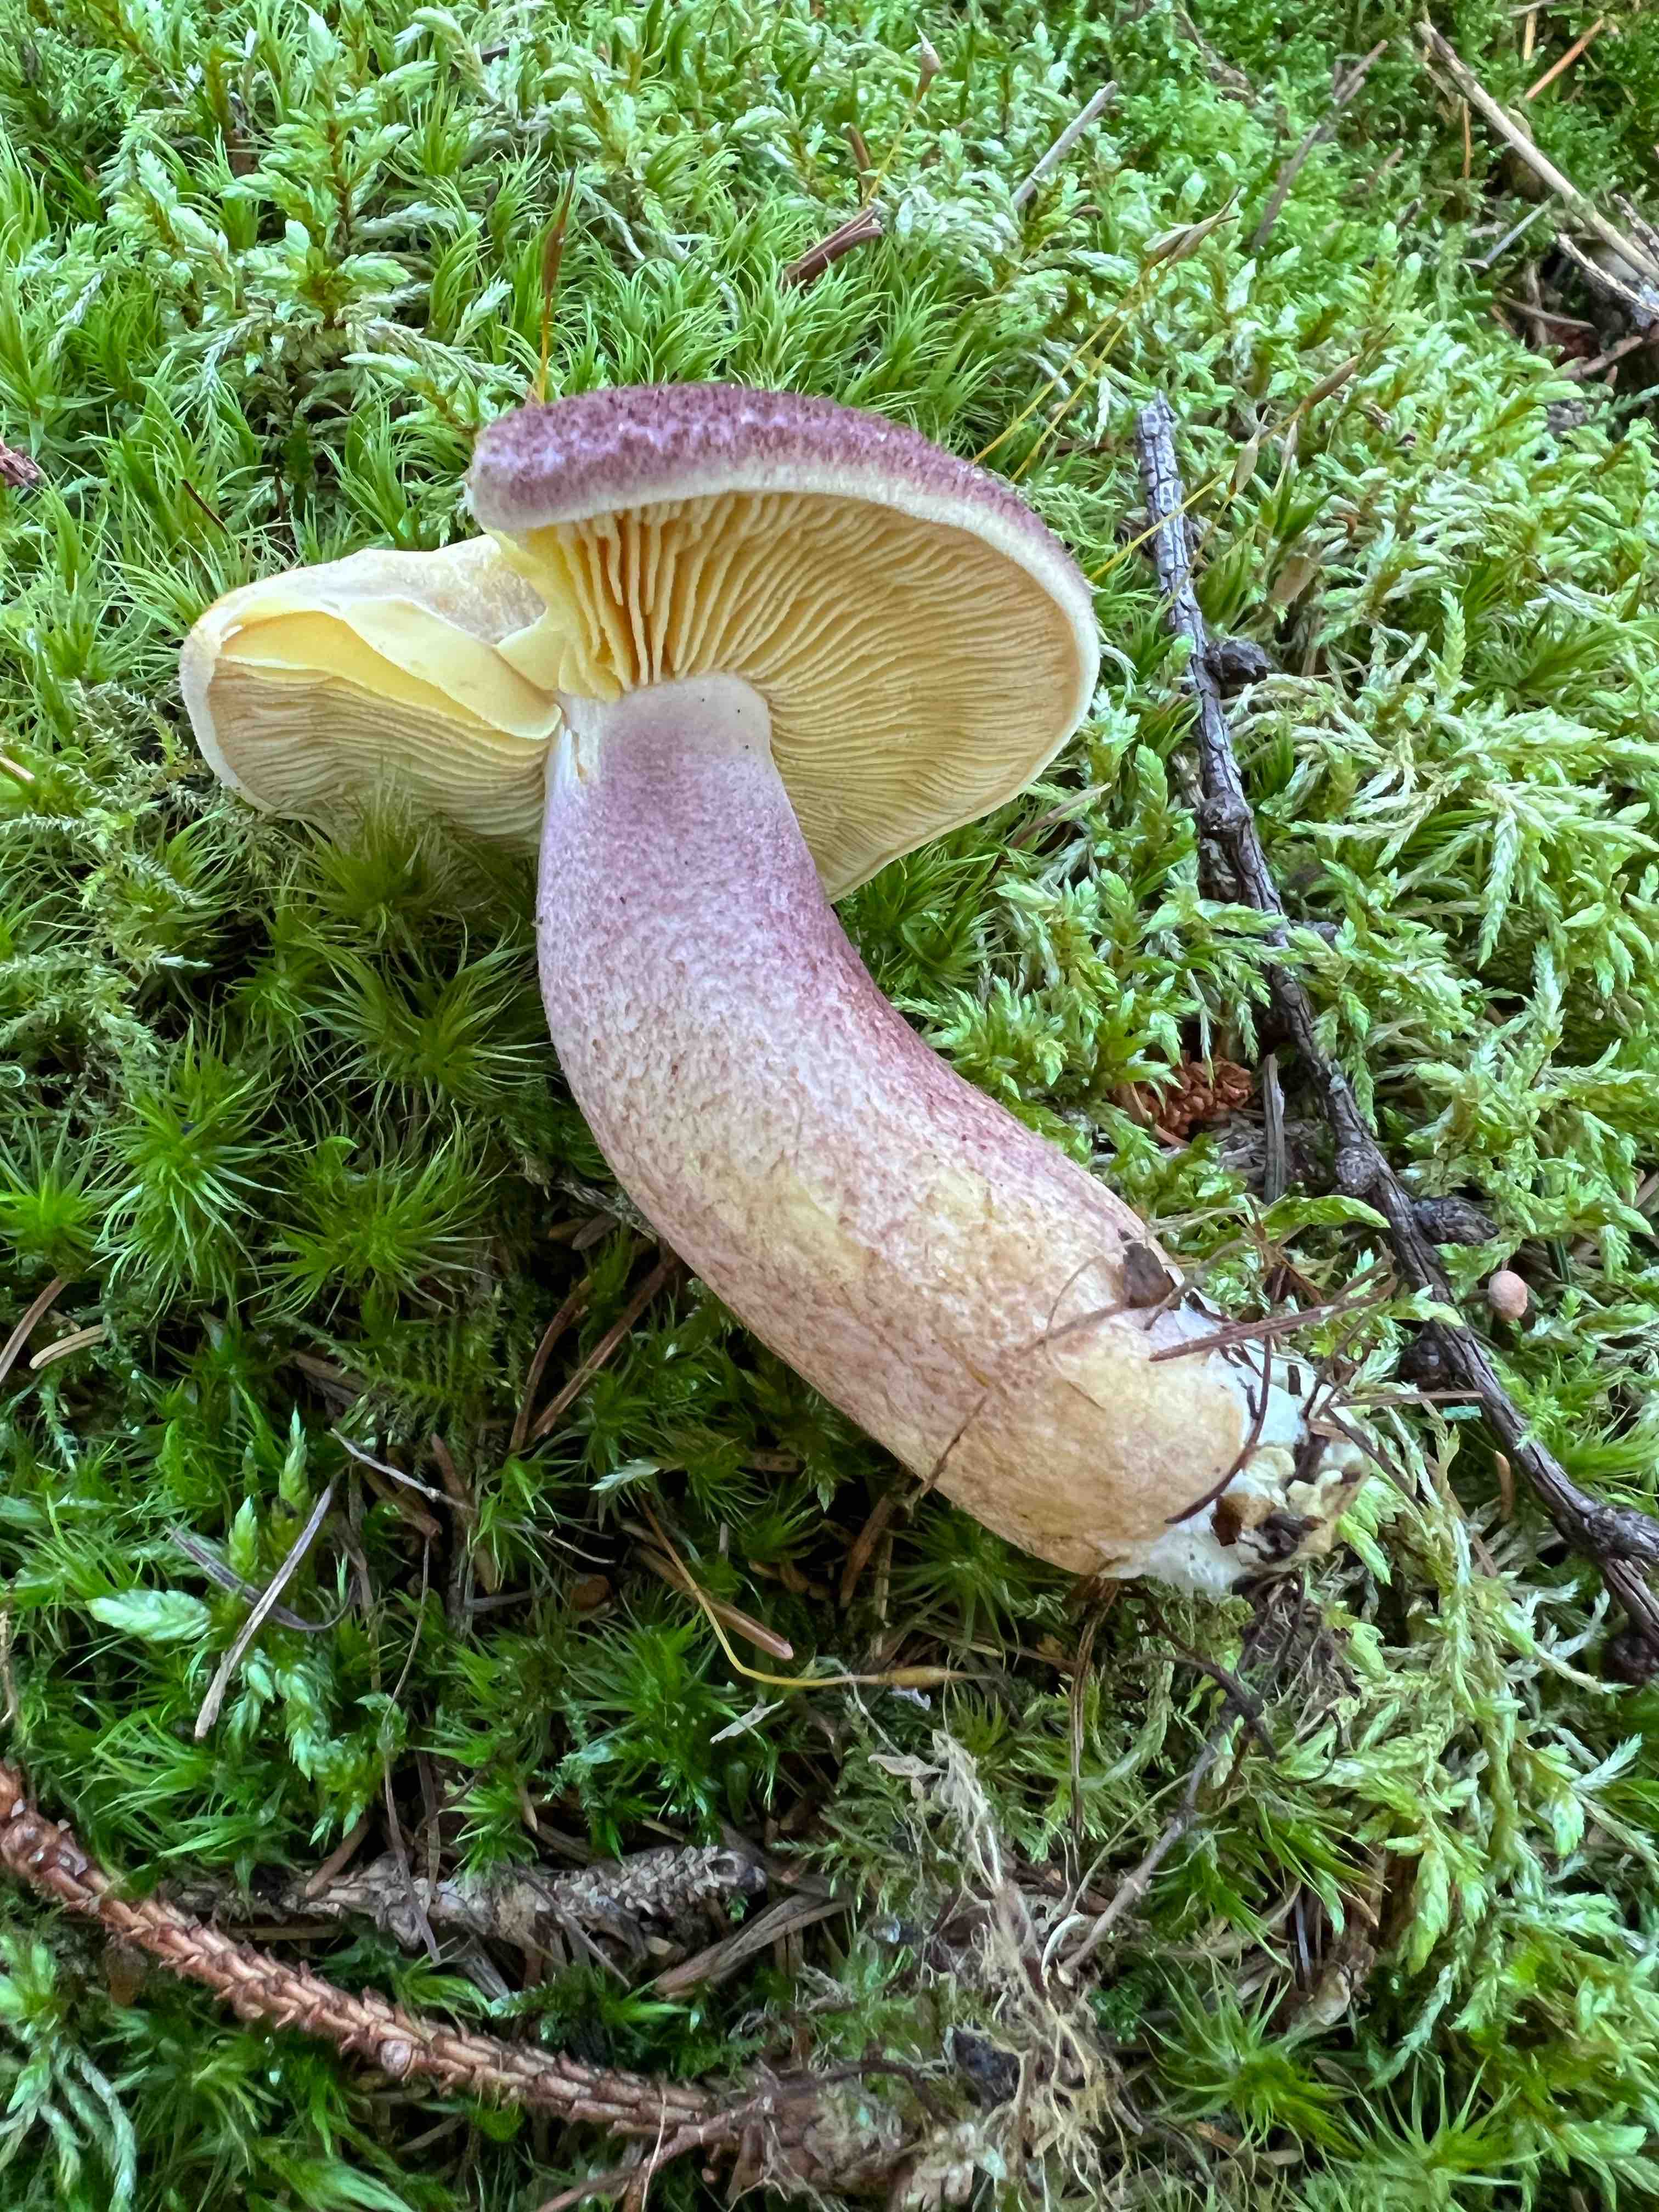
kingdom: Fungi
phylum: Basidiomycota
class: Agaricomycetes
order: Agaricales
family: Tricholomataceae
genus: Tricholomopsis
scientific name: Tricholomopsis rutilans
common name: purpur-væbnerhat
